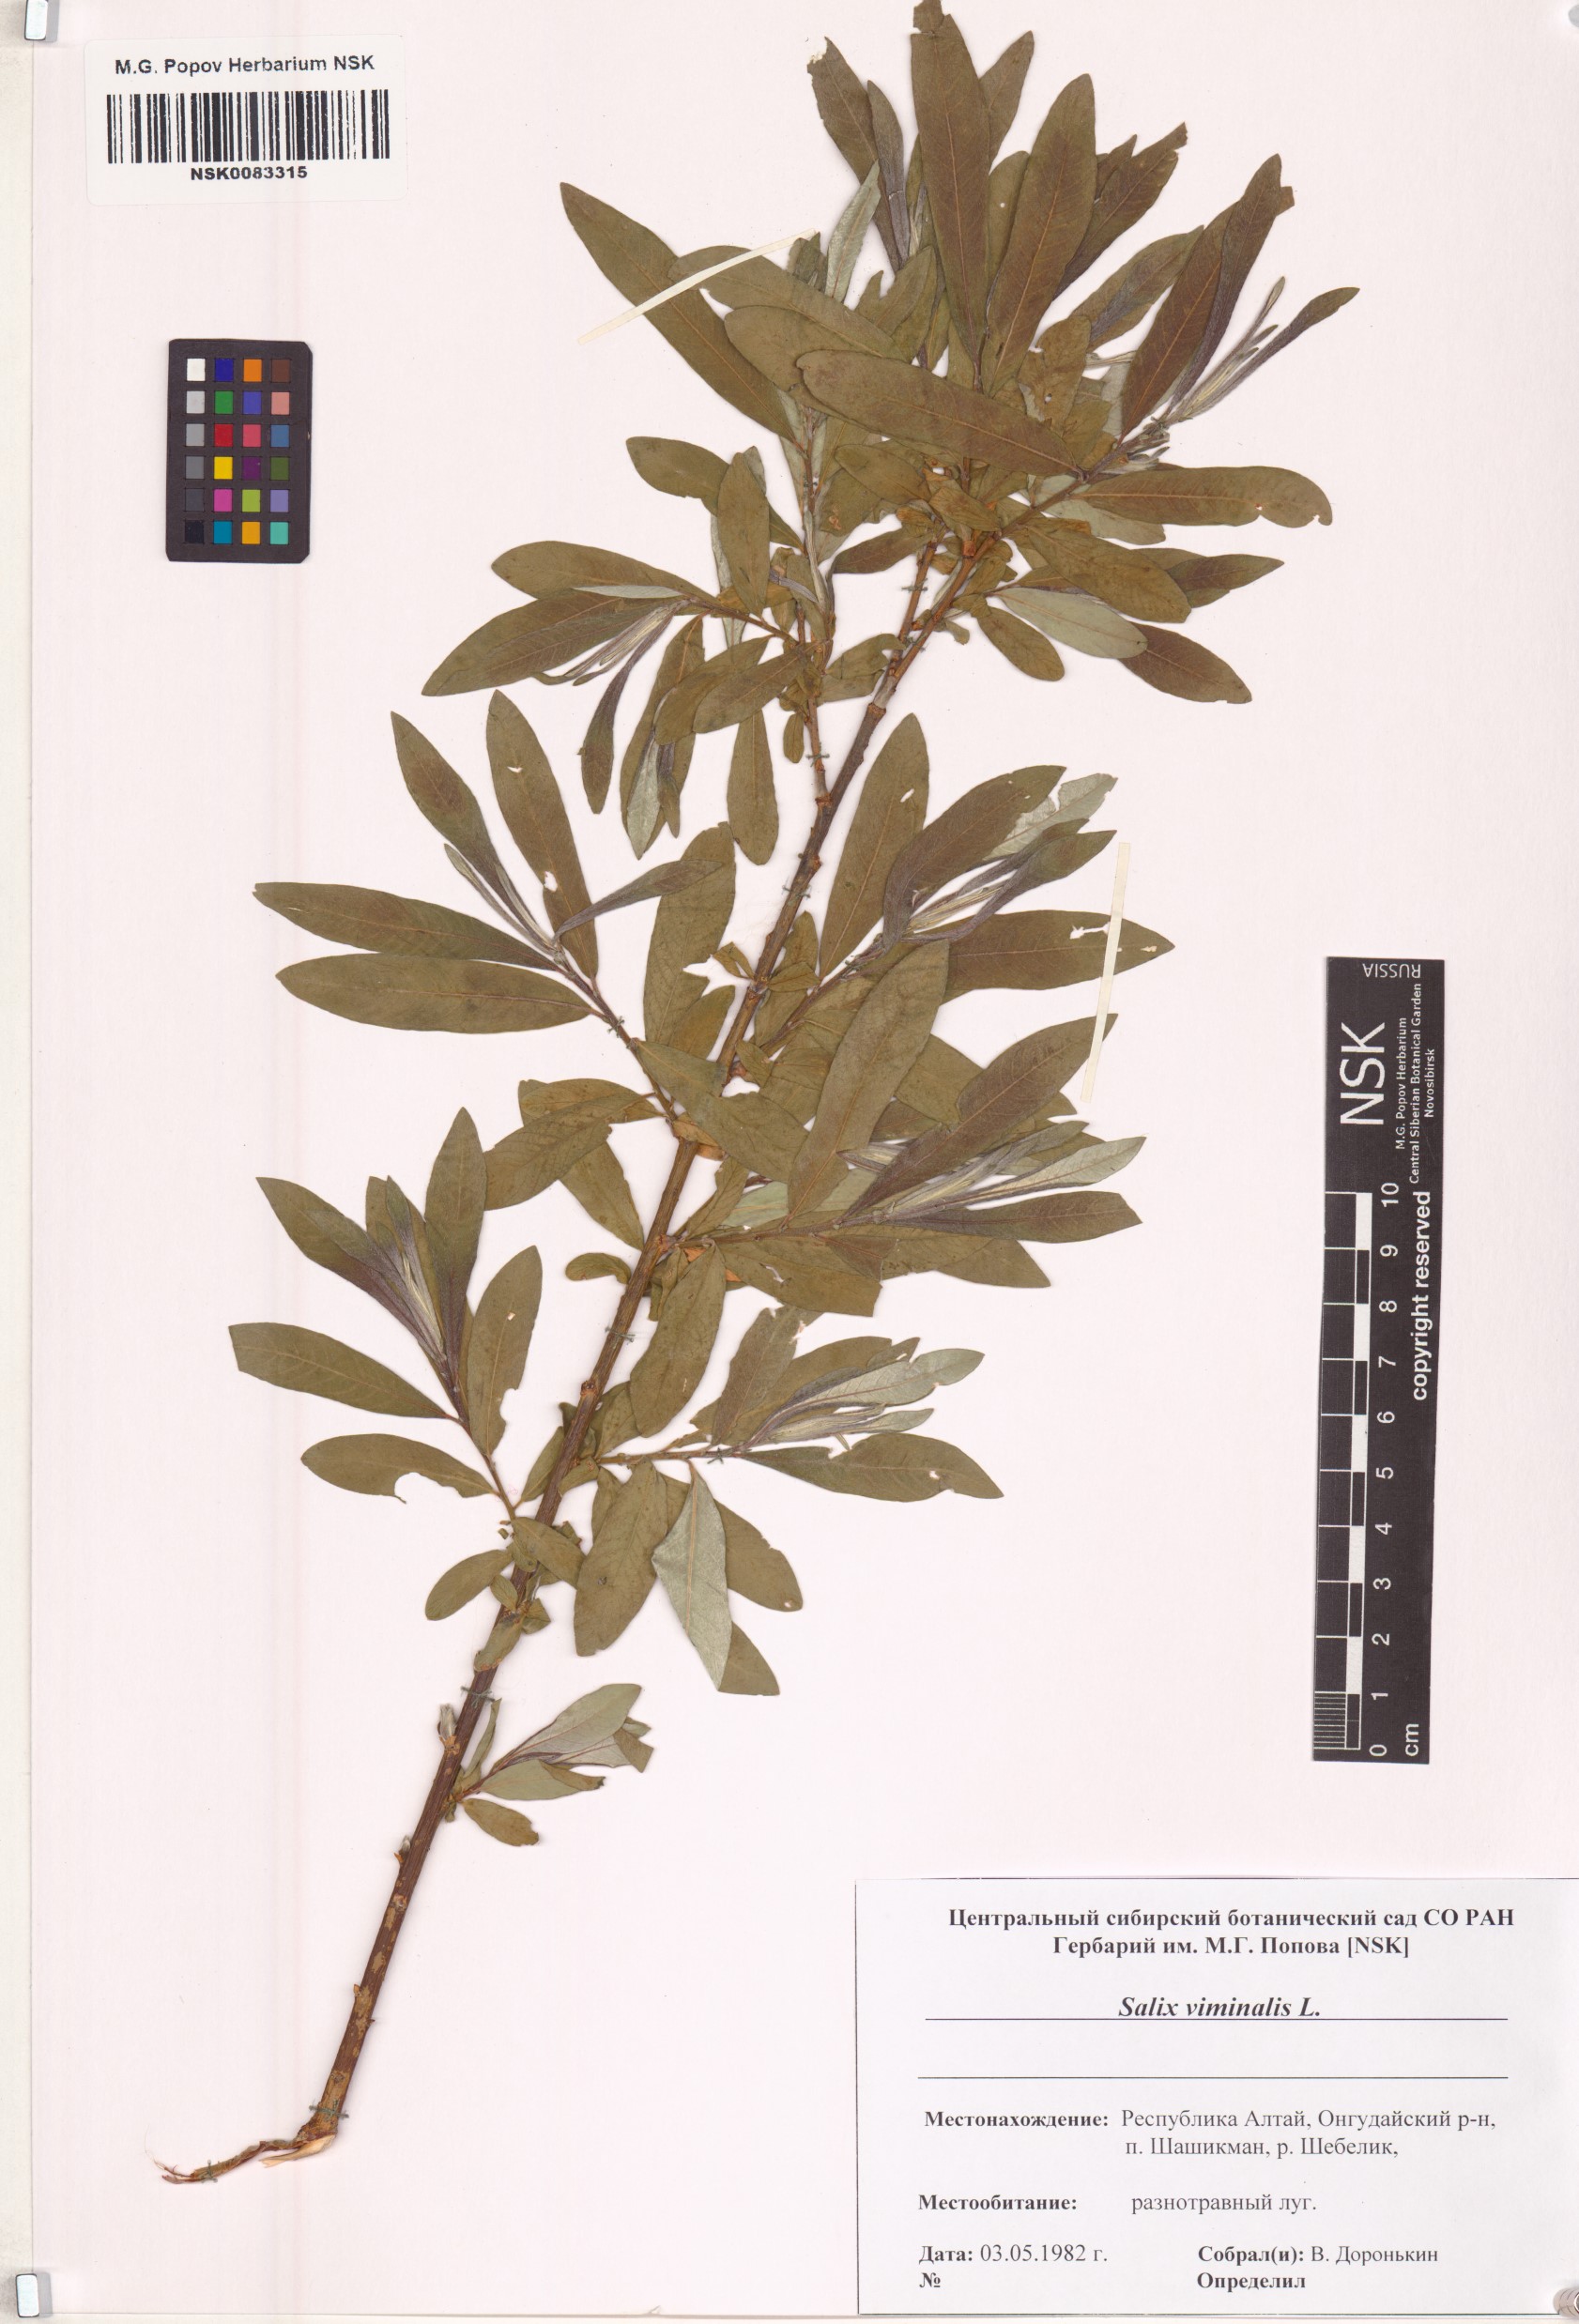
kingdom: Plantae
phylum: Tracheophyta
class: Magnoliopsida
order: Malpighiales
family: Salicaceae
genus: Salix
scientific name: Salix viminalis
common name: Osier
